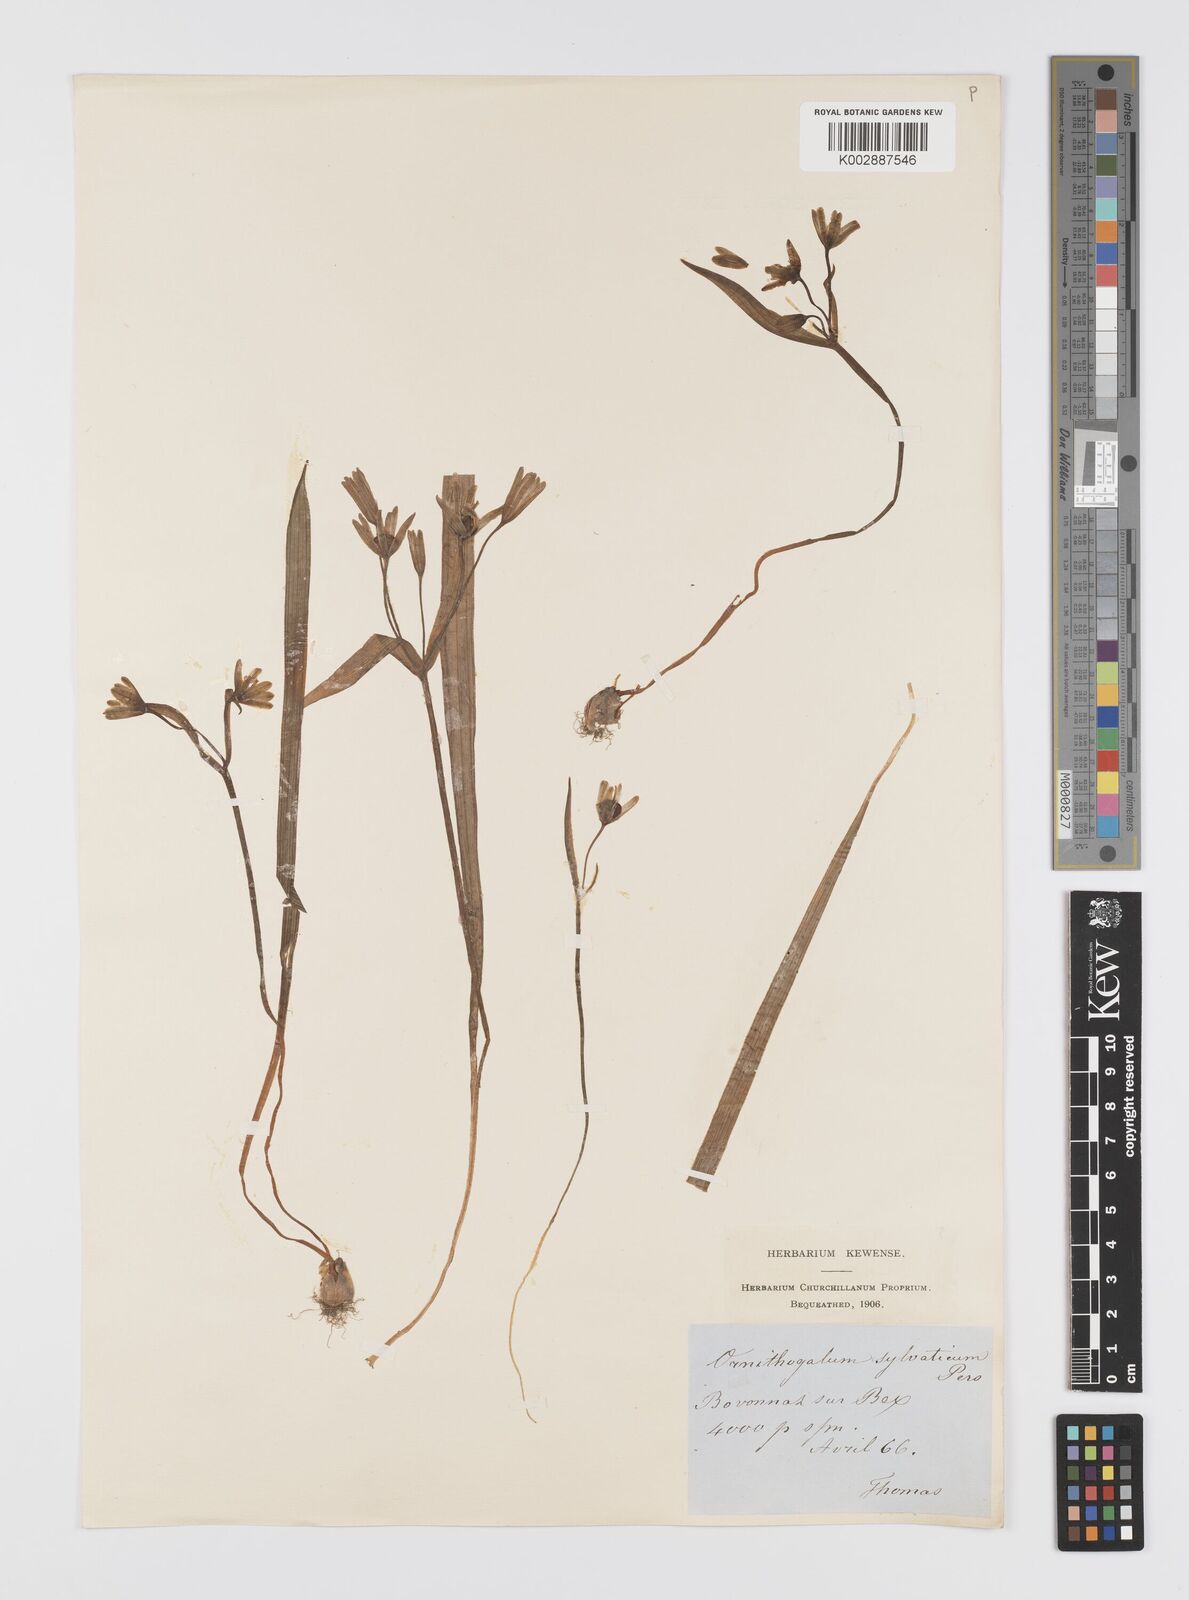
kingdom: Plantae
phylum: Tracheophyta
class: Liliopsida
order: Liliales
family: Liliaceae
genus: Gagea
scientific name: Gagea lutea
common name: Yellow star-of-bethlehem
